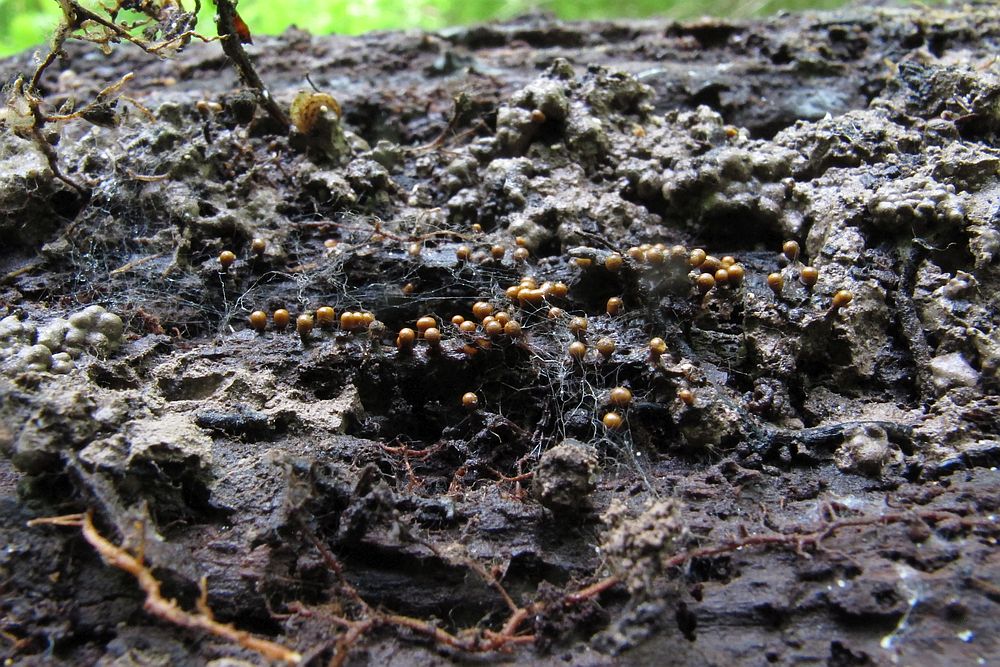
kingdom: Protozoa
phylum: Mycetozoa
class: Myxomycetes
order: Trichiales
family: Trichiaceae
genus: Trichia
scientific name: Trichia varia
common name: foranderlig hårbold
